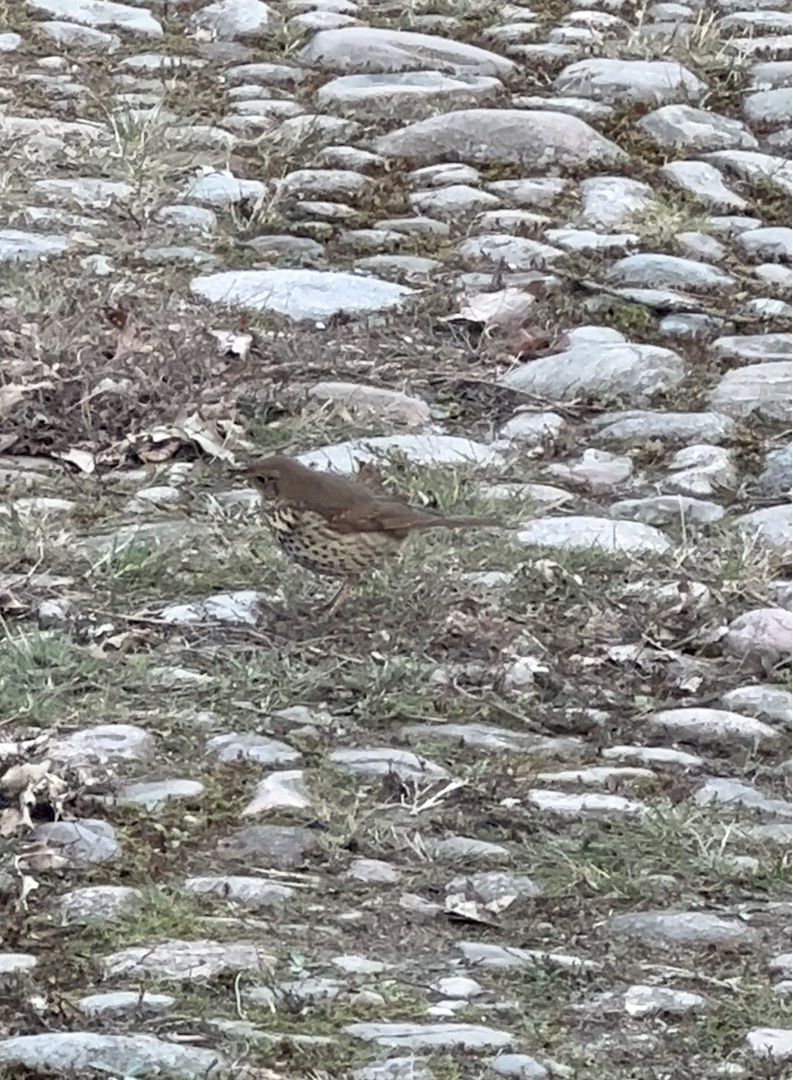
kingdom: Animalia
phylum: Chordata
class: Aves
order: Passeriformes
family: Turdidae
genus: Turdus
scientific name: Turdus philomelos
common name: Sangdrossel
